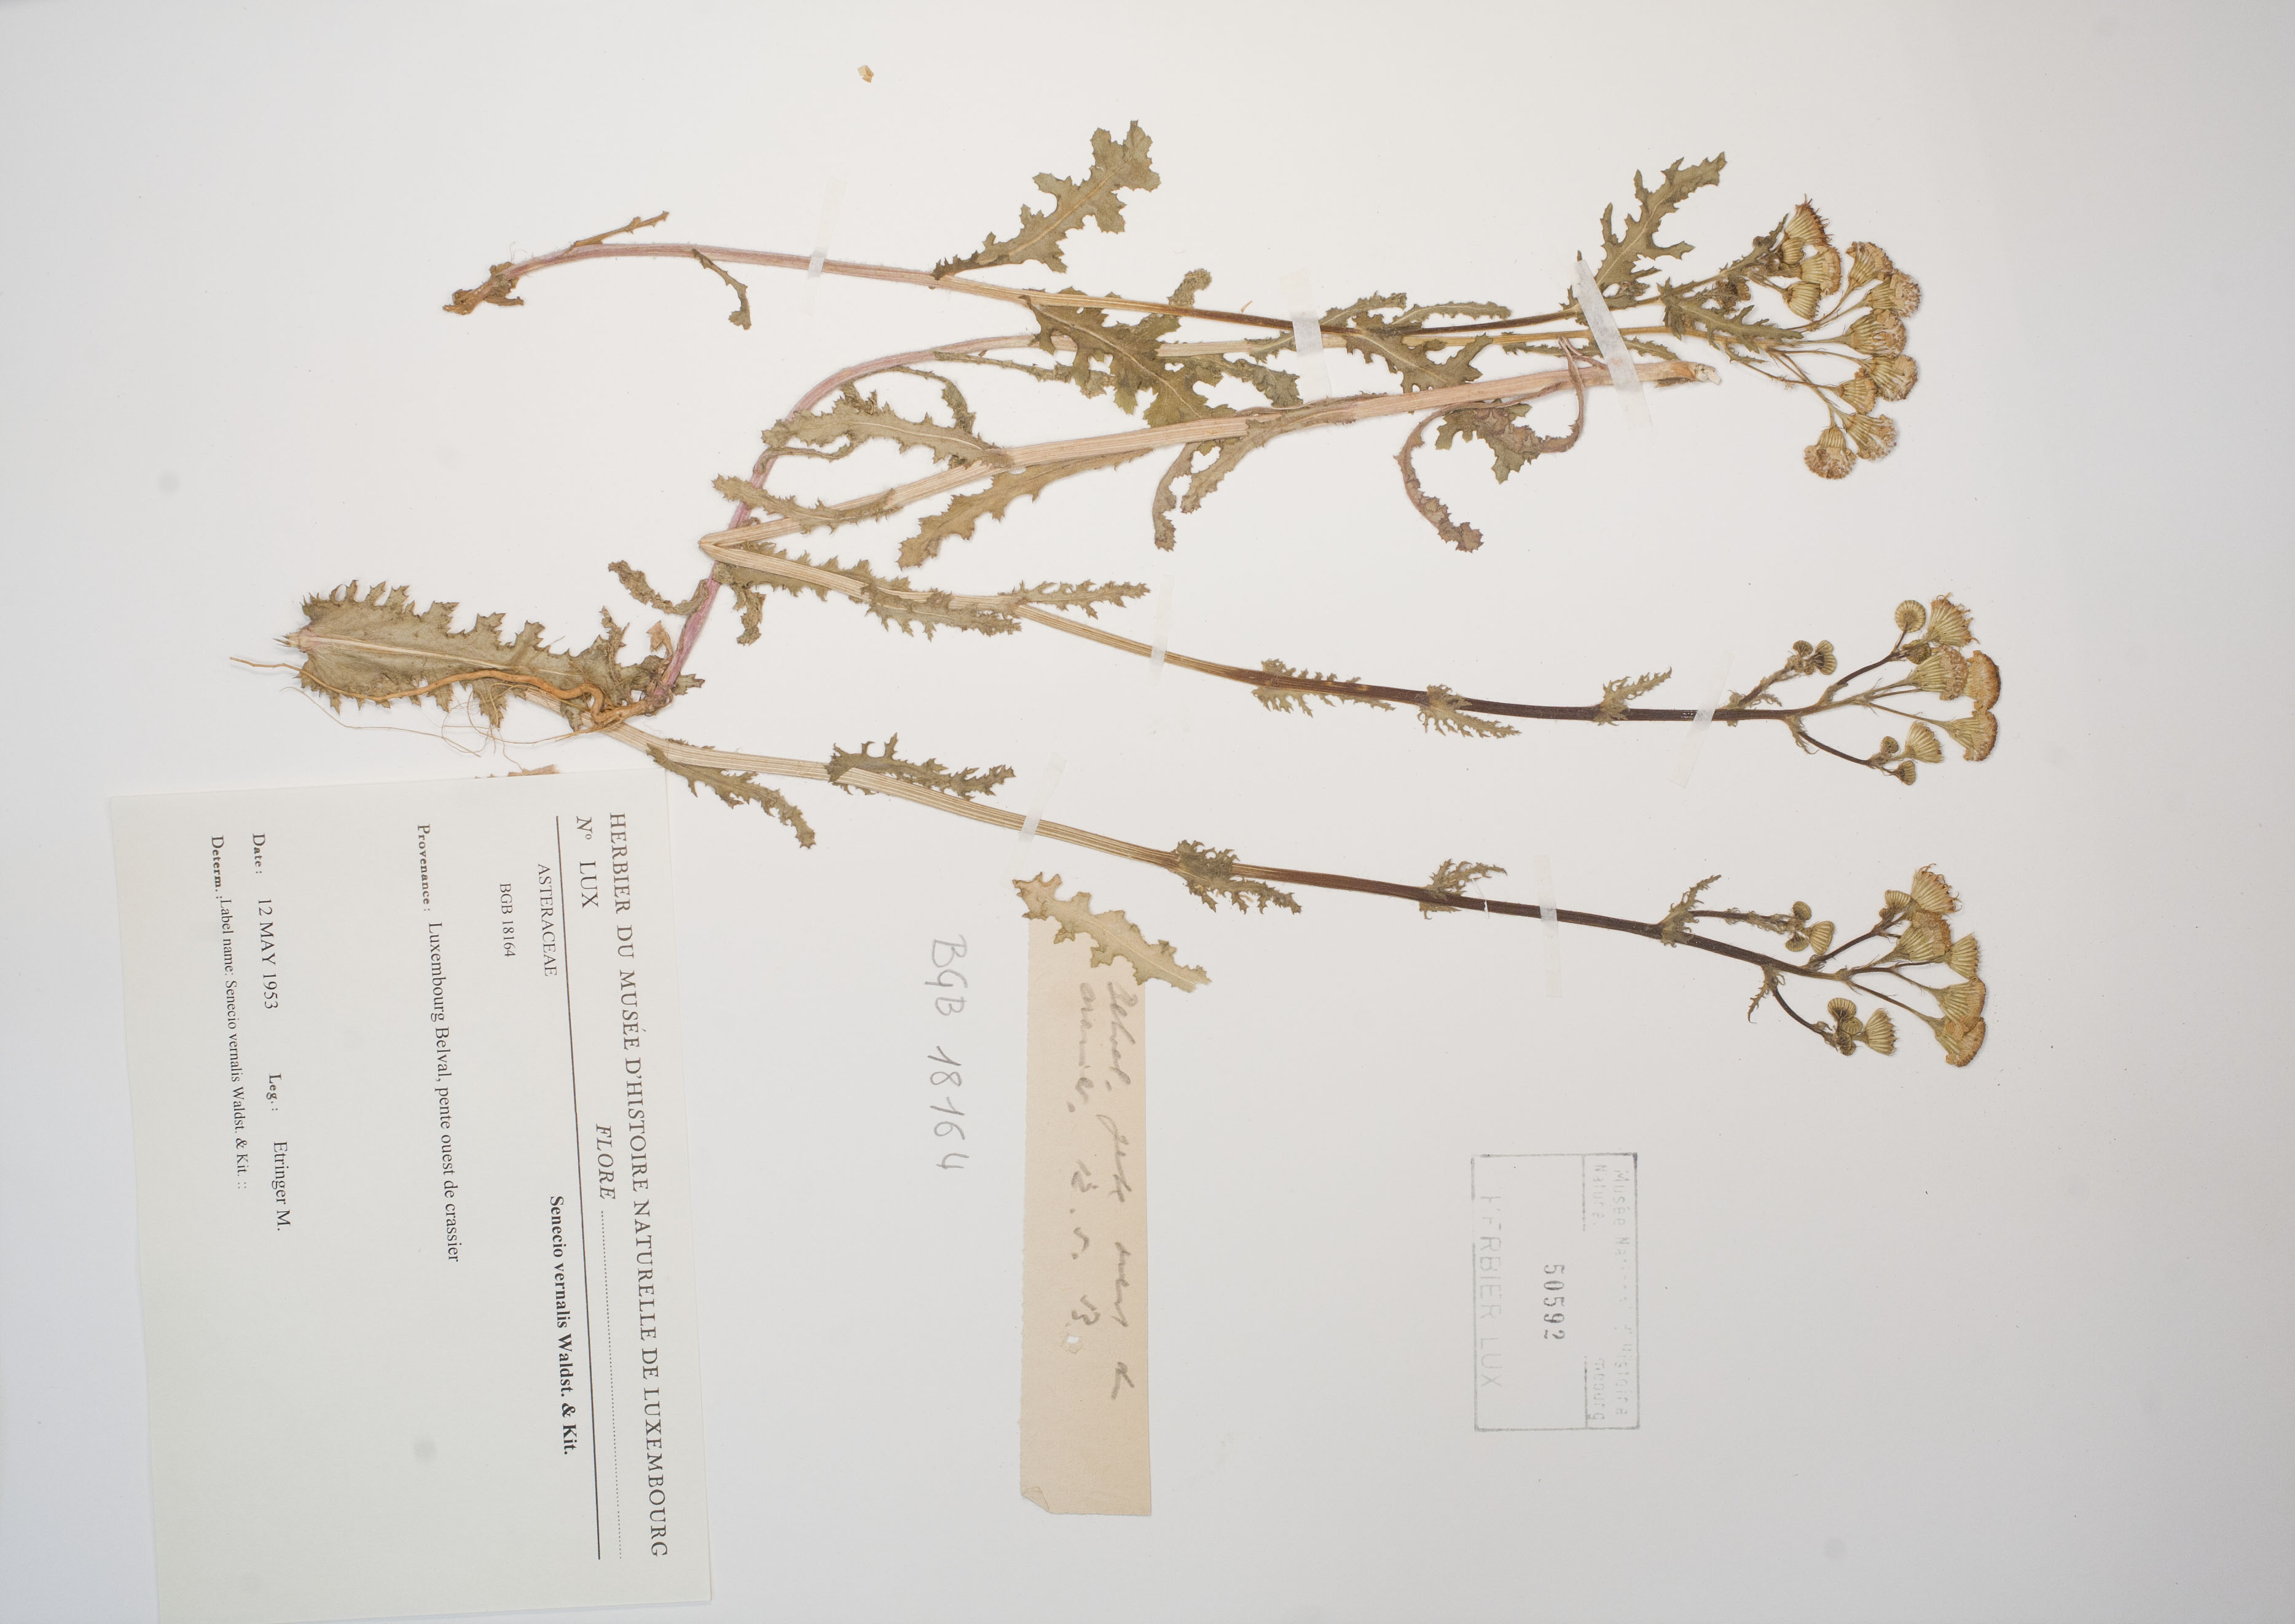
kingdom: Plantae
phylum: Tracheophyta
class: Magnoliopsida
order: Asterales
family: Asteraceae
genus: Senecio
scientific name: Senecio vernalis
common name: Eastern groundsel
